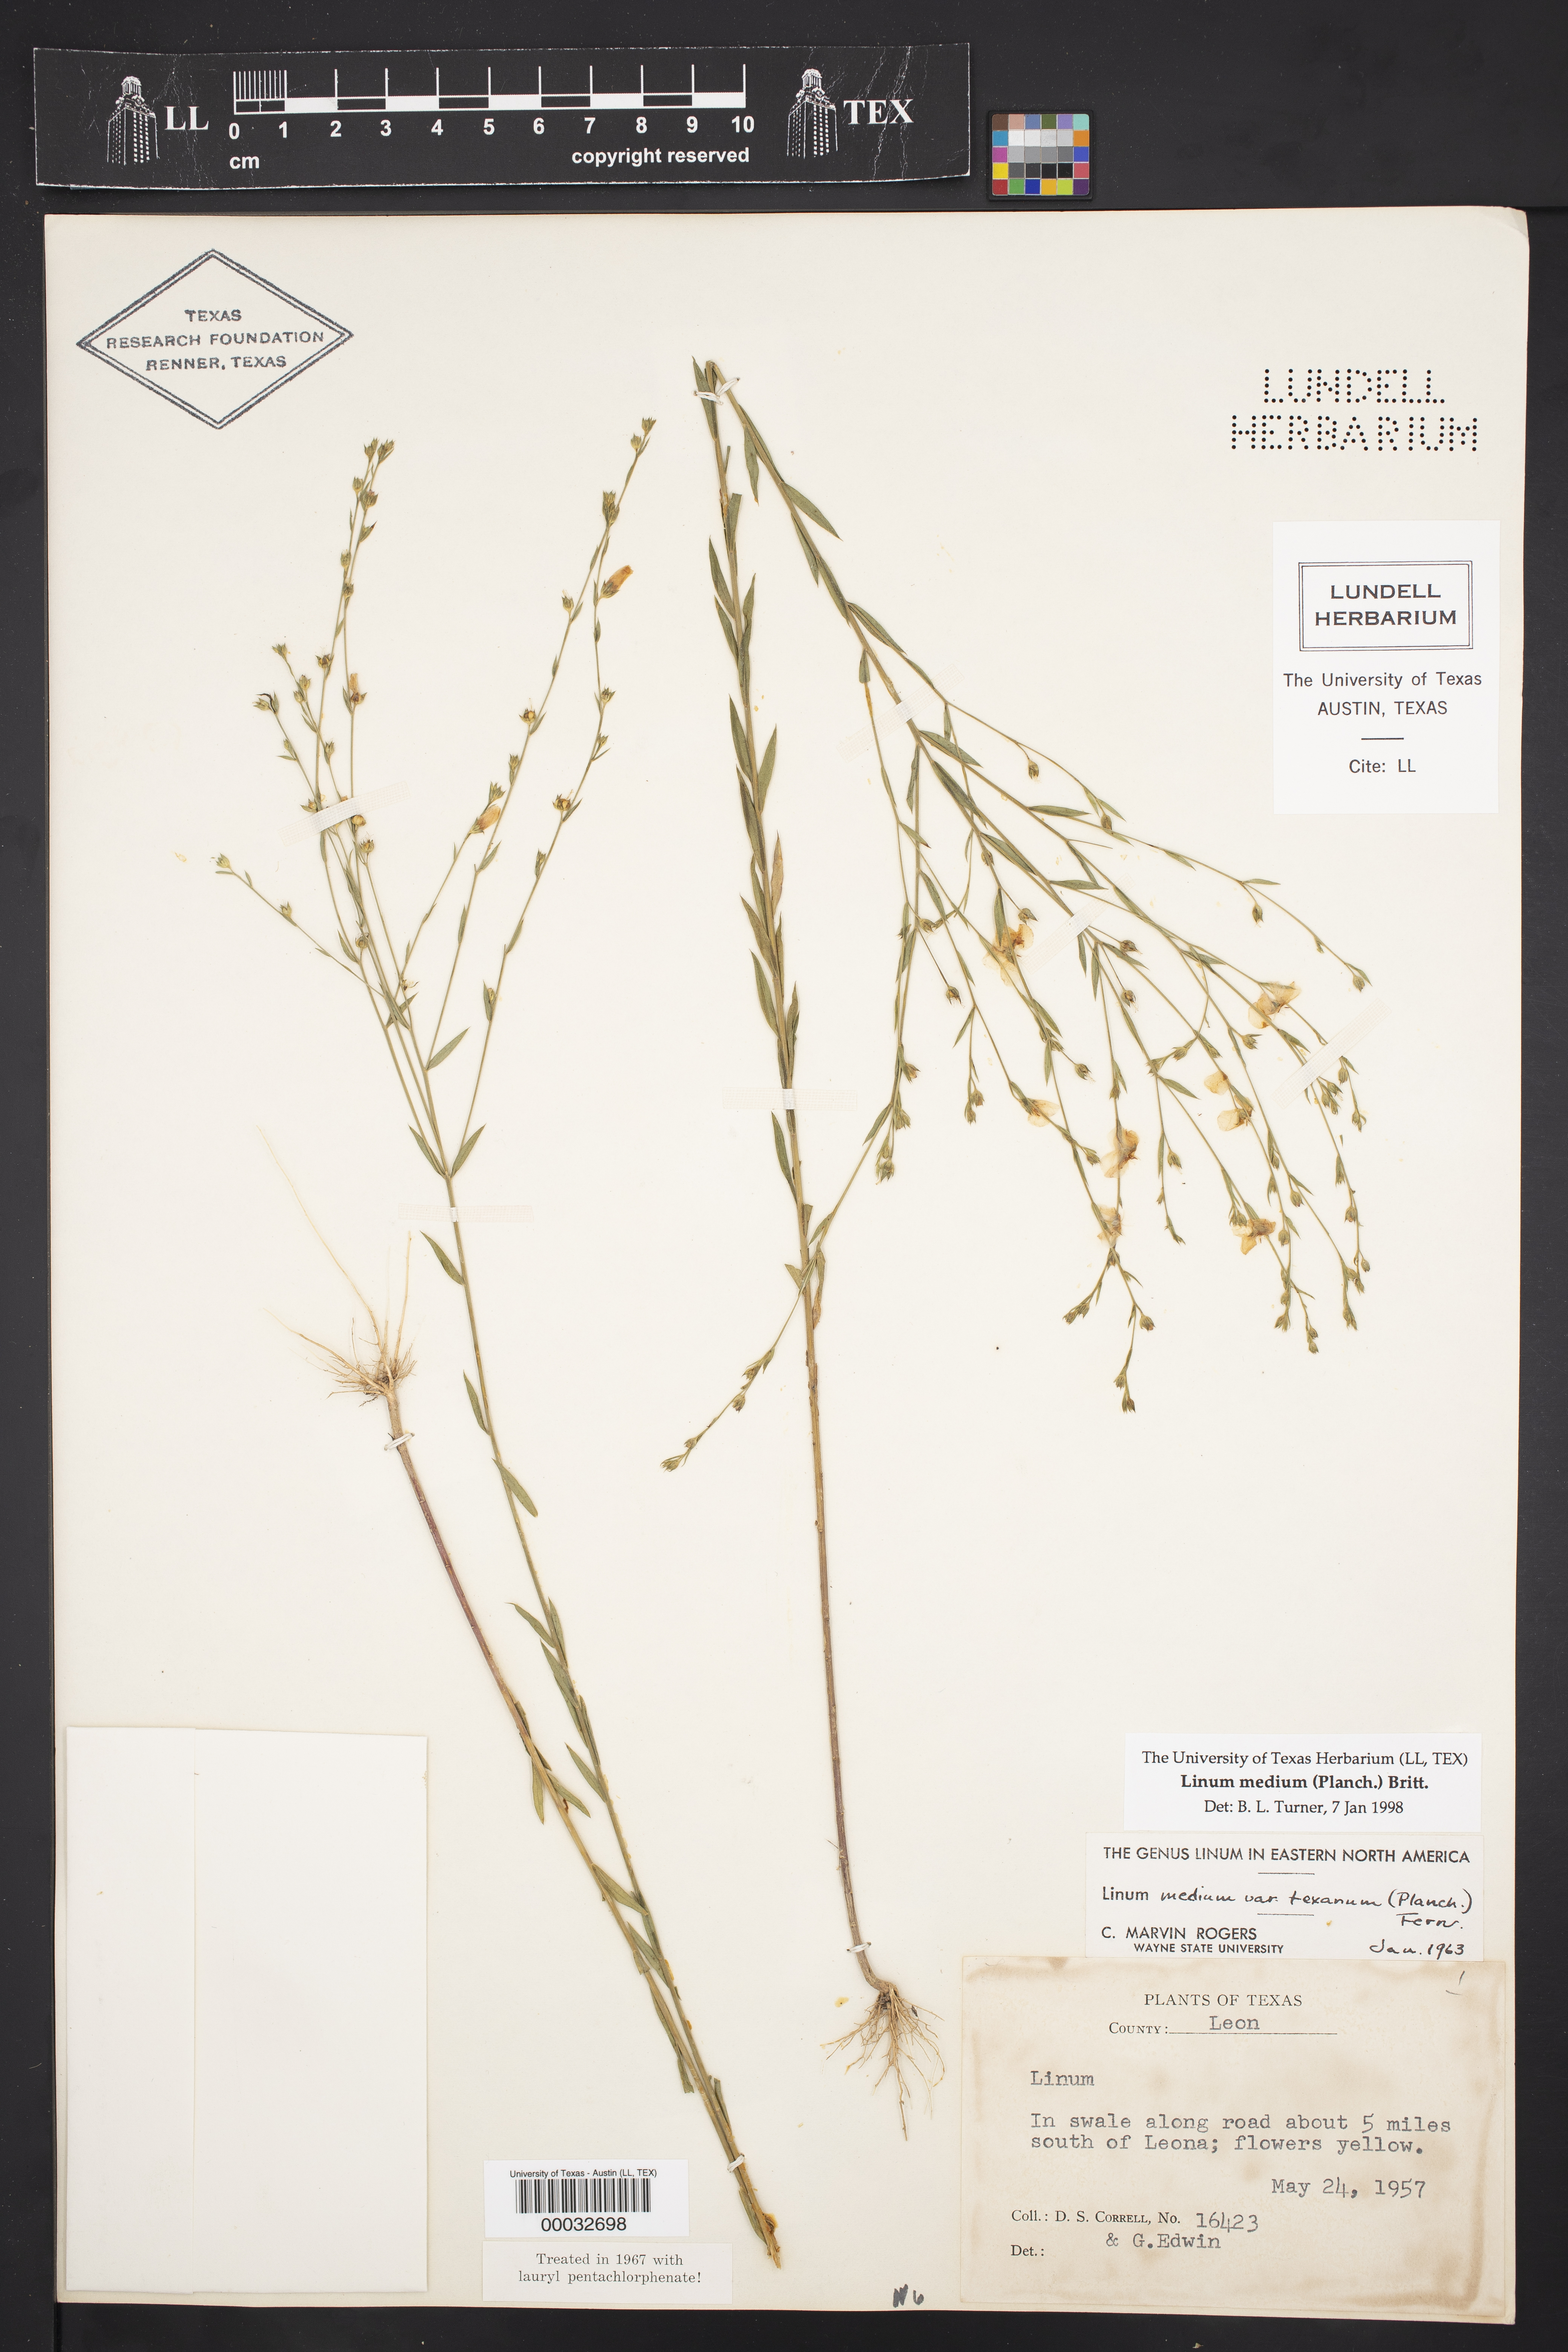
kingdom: Plantae
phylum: Tracheophyta
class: Magnoliopsida
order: Malpighiales
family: Linaceae
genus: Linum
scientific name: Linum medium
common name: Stiff yellow flax
